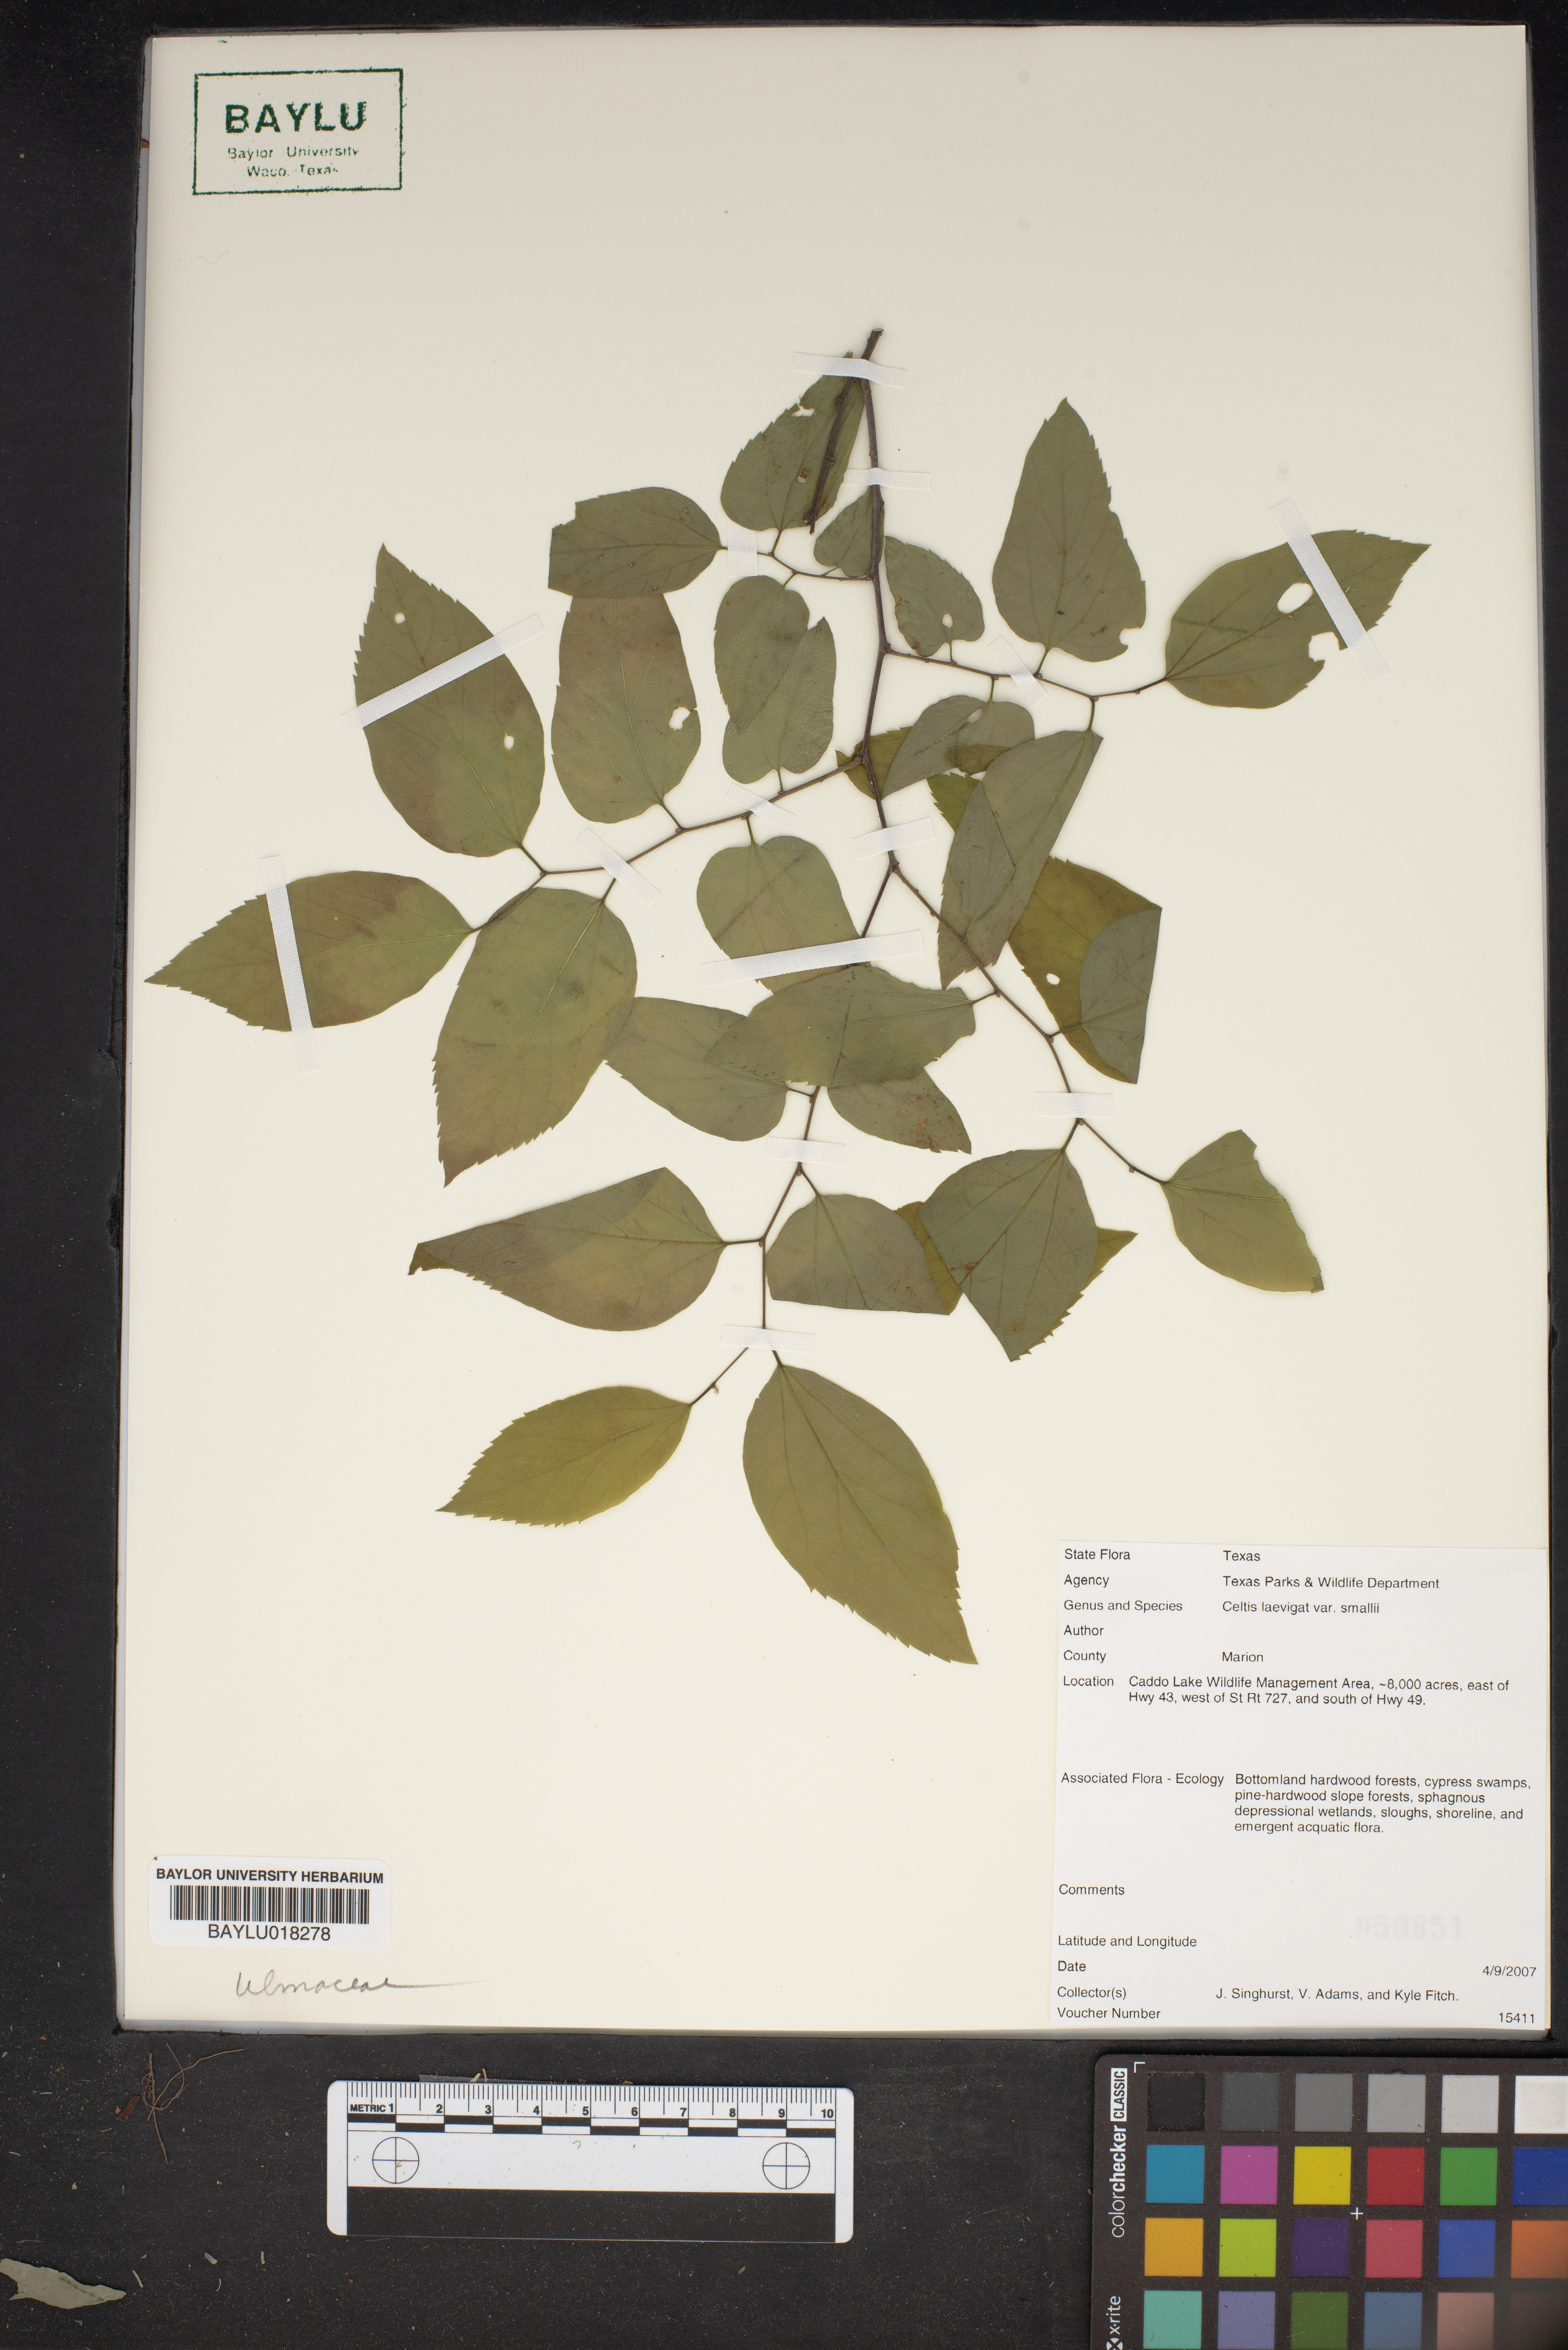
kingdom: Plantae
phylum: Tracheophyta
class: Magnoliopsida
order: Rosales
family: Cannabaceae
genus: Celtis
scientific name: Celtis
